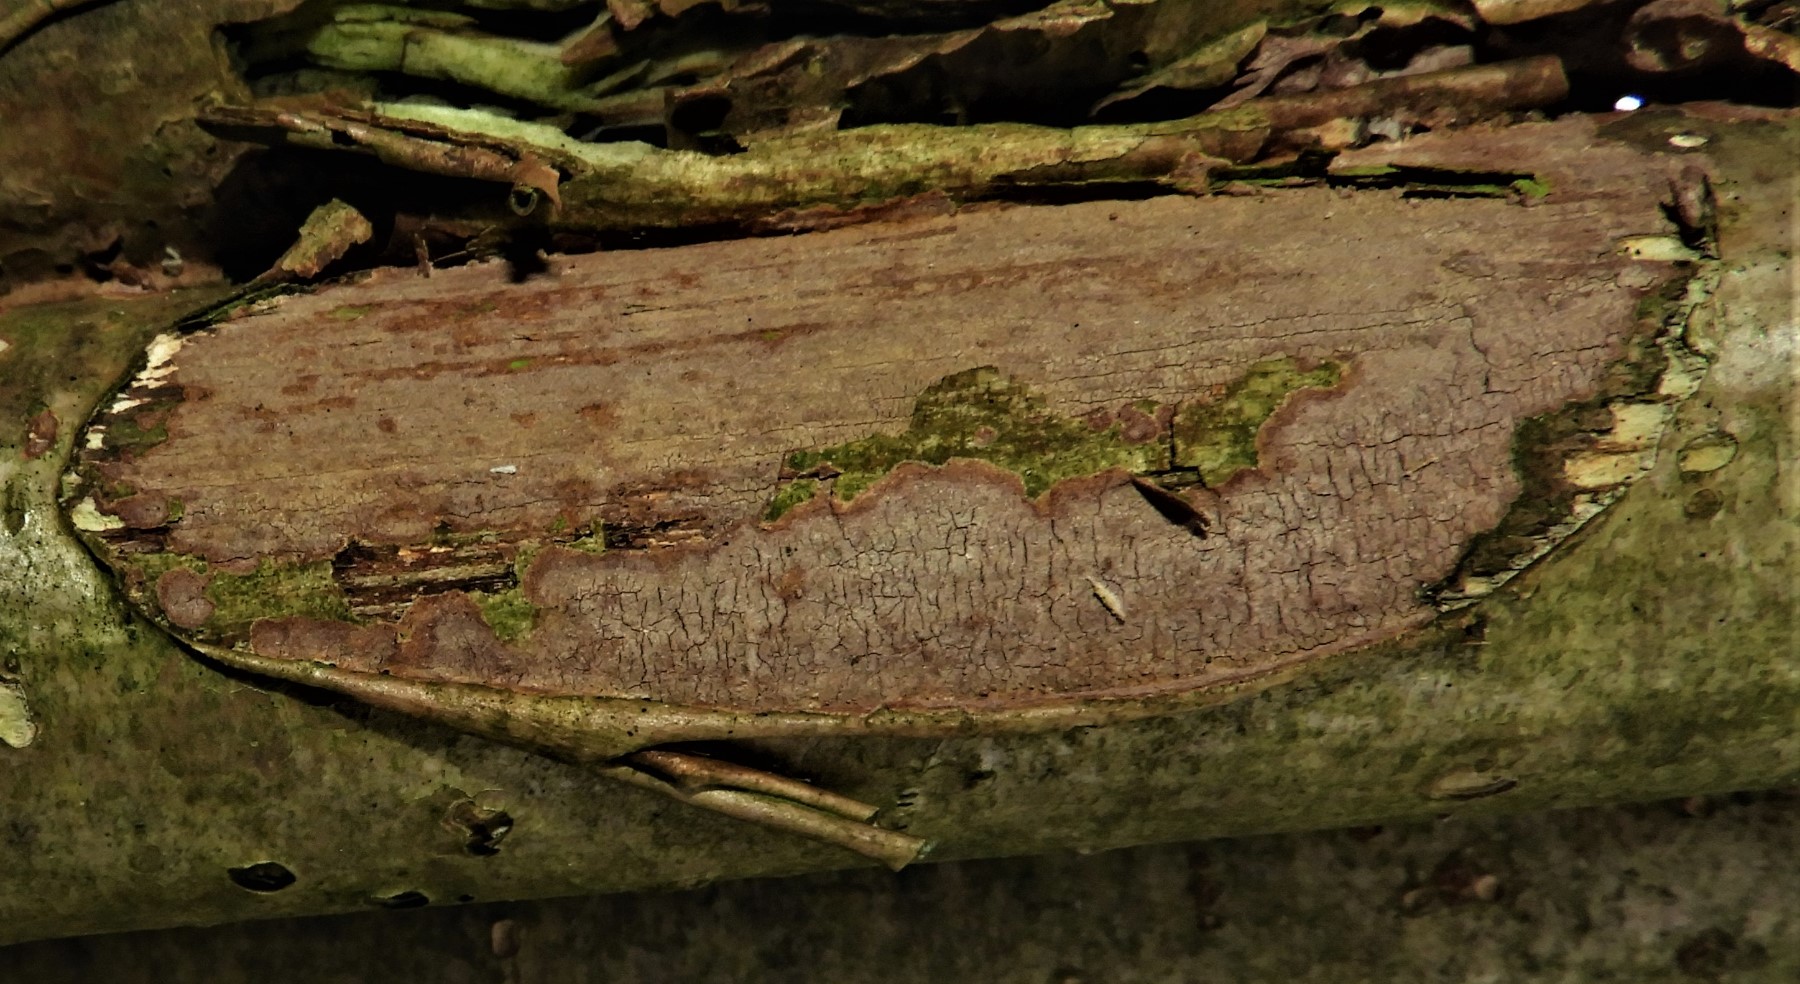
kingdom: Fungi
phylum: Basidiomycota
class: Agaricomycetes
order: Corticiales
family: Corticiaceae
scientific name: Corticiaceae
